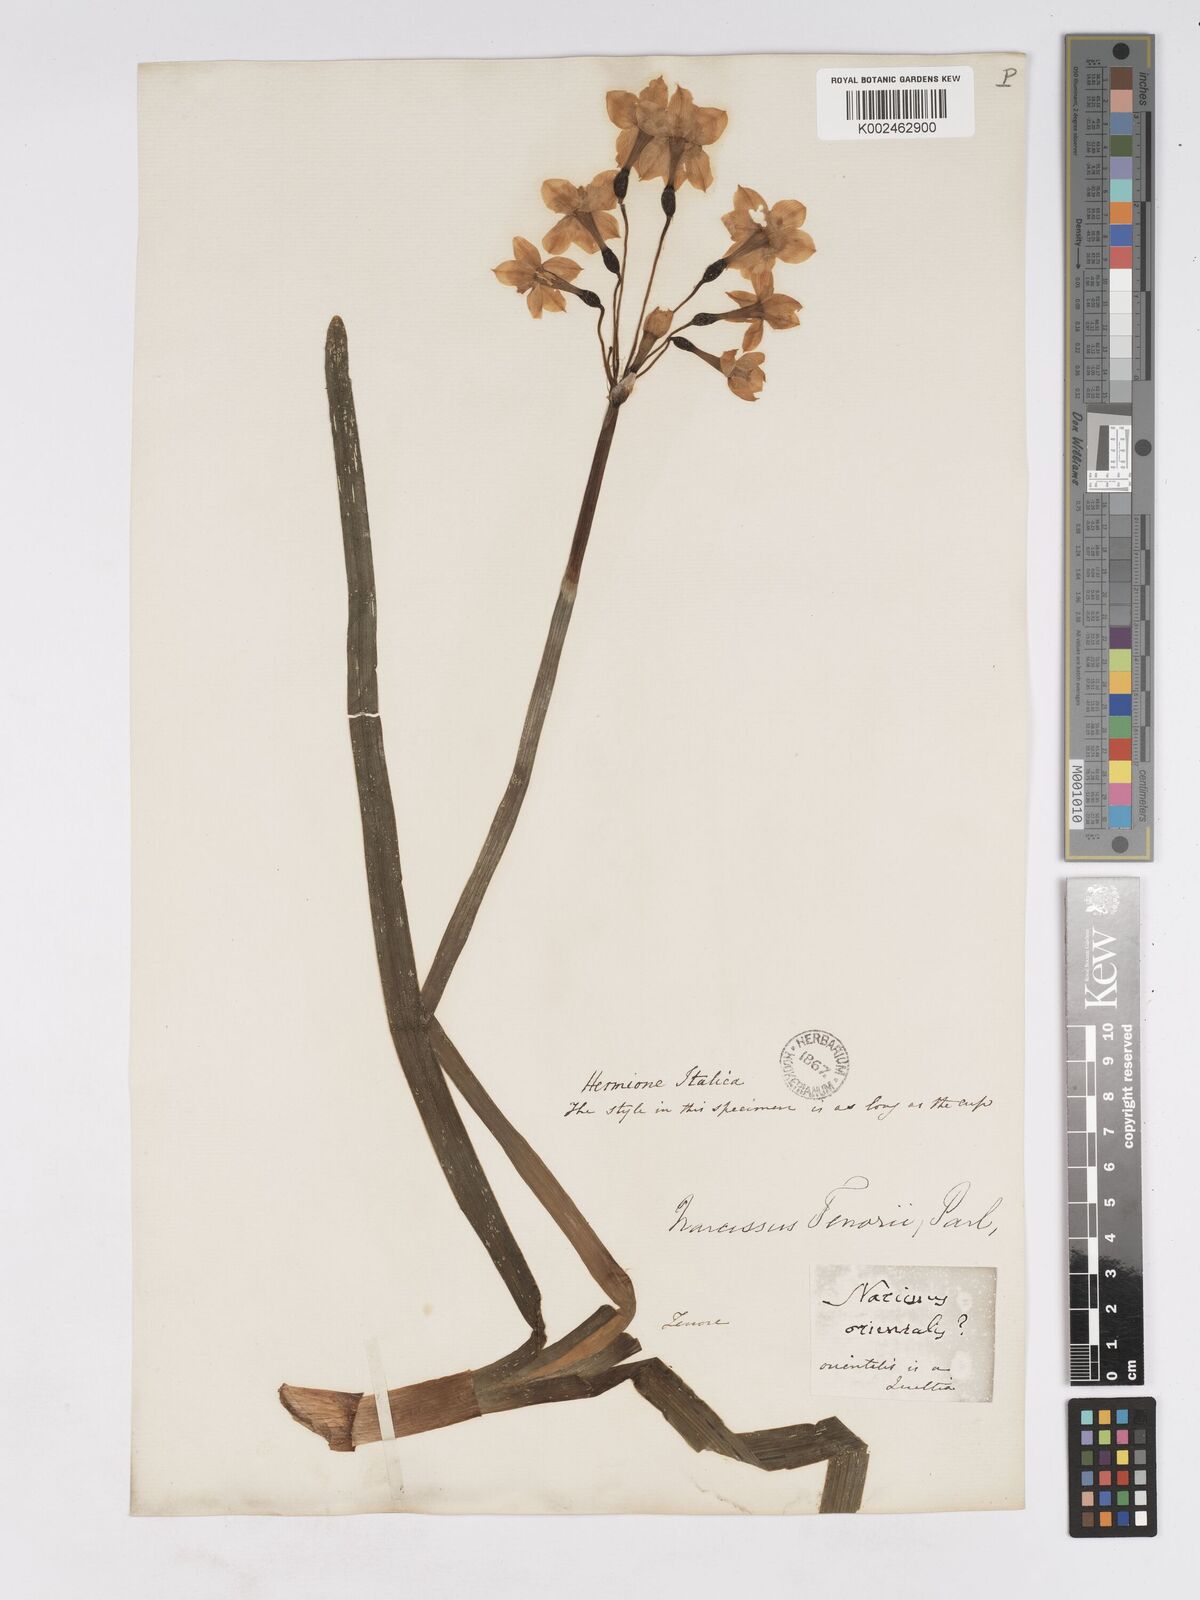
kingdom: Plantae
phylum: Tracheophyta
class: Liliopsida
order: Asparagales
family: Amaryllidaceae
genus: Narcissus
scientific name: Narcissus tazetta
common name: Bunch-flowered daffodil
